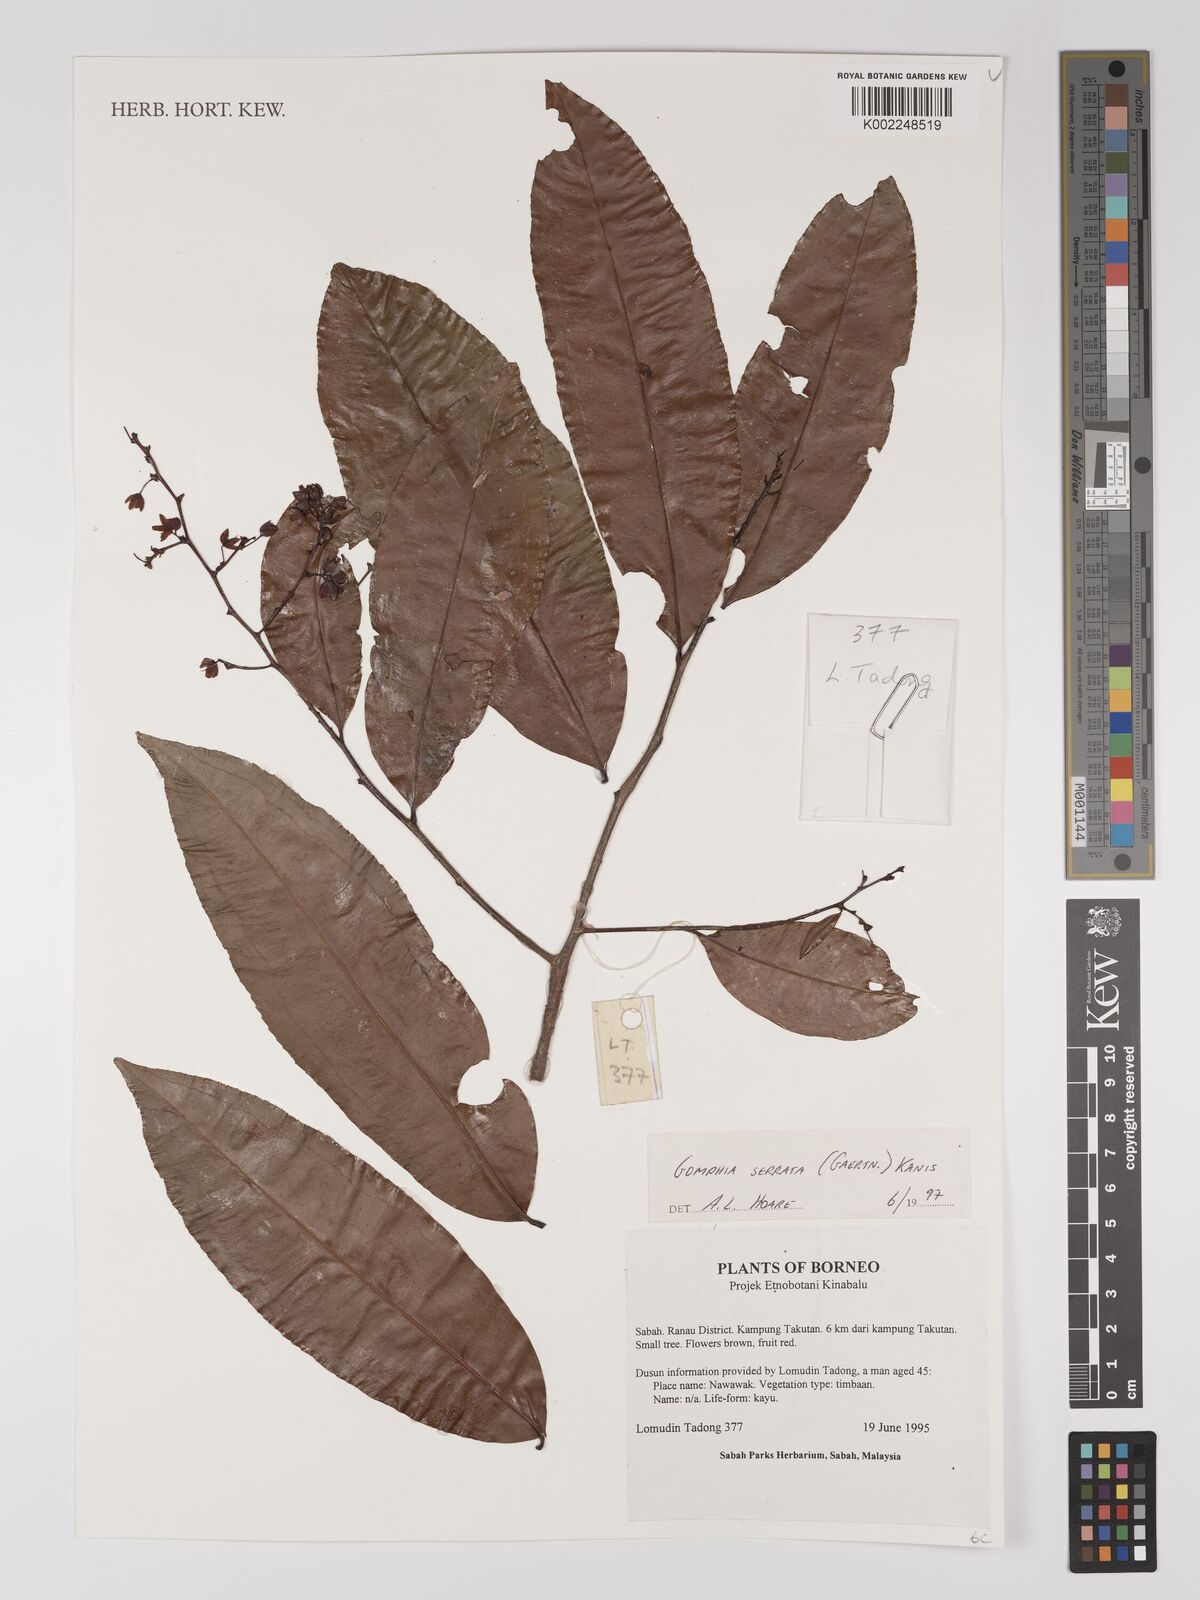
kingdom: Plantae
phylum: Tracheophyta
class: Magnoliopsida
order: Malpighiales
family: Ochnaceae
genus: Gomphia
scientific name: Gomphia serrata
